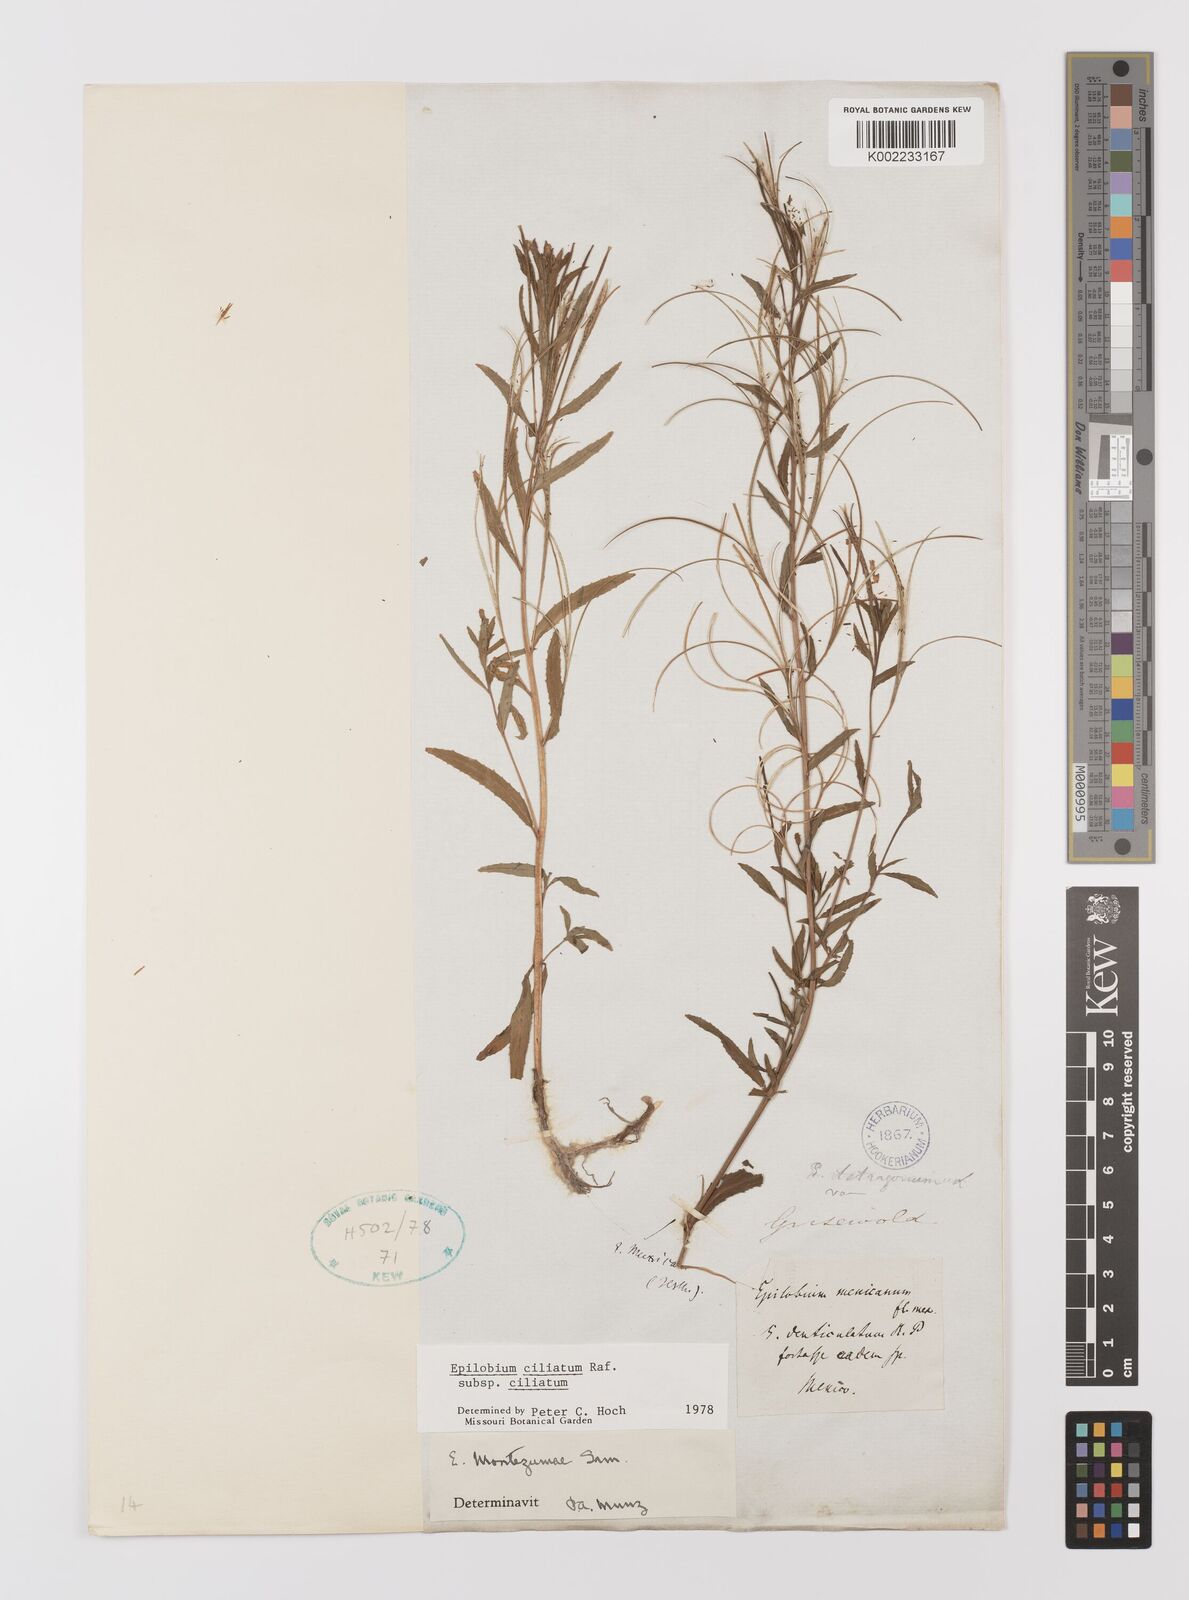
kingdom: Plantae
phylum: Tracheophyta
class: Magnoliopsida
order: Myrtales
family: Onagraceae
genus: Epilobium
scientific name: Epilobium ciliatum
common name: American willowherb
